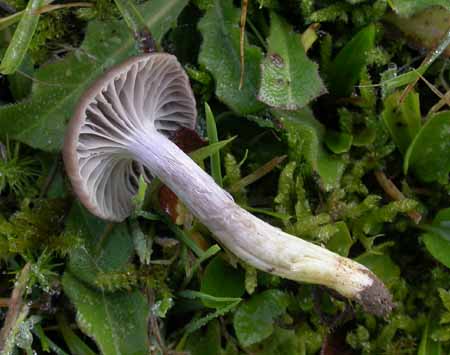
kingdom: Fungi
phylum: Basidiomycota
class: Agaricomycetes
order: Agaricales
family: Hygrophoraceae
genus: Cuphophyllus
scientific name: Cuphophyllus flavipes
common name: gulfodet vokshat
